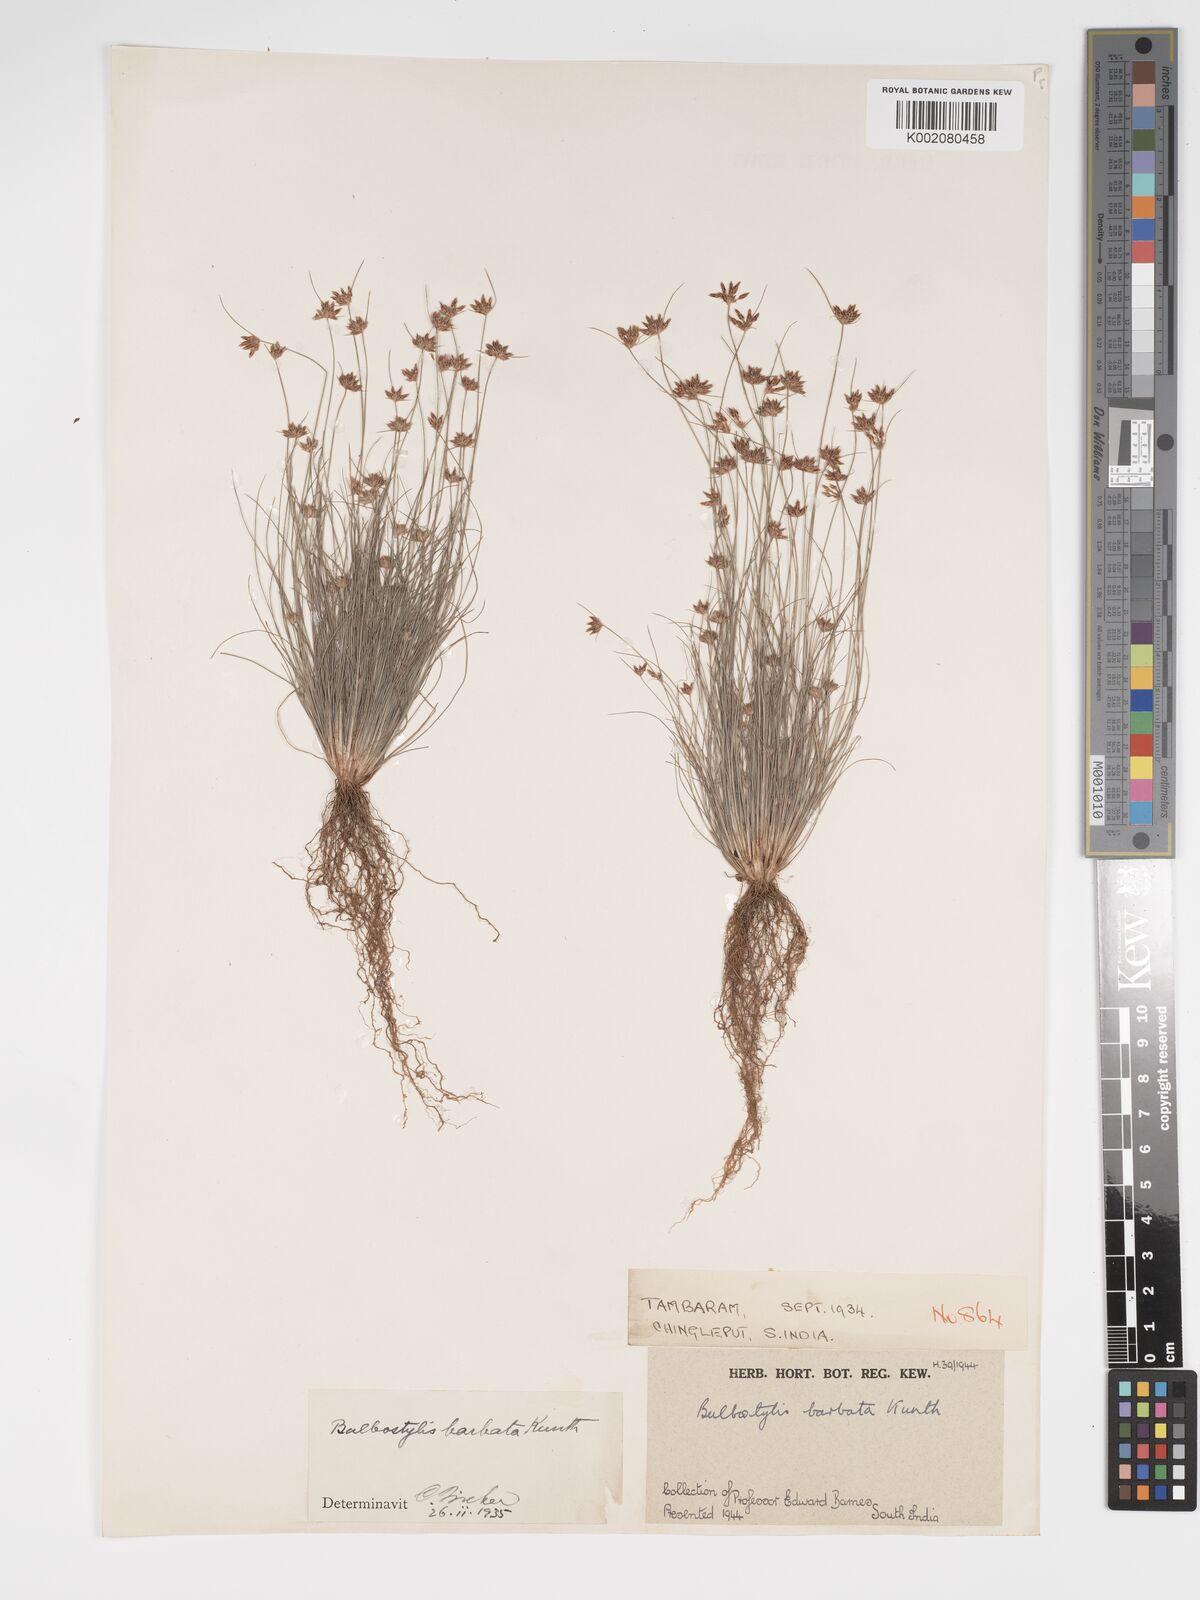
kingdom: Plantae
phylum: Tracheophyta
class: Liliopsida
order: Poales
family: Cyperaceae
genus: Bulbostylis
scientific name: Bulbostylis barbata
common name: Watergrass
